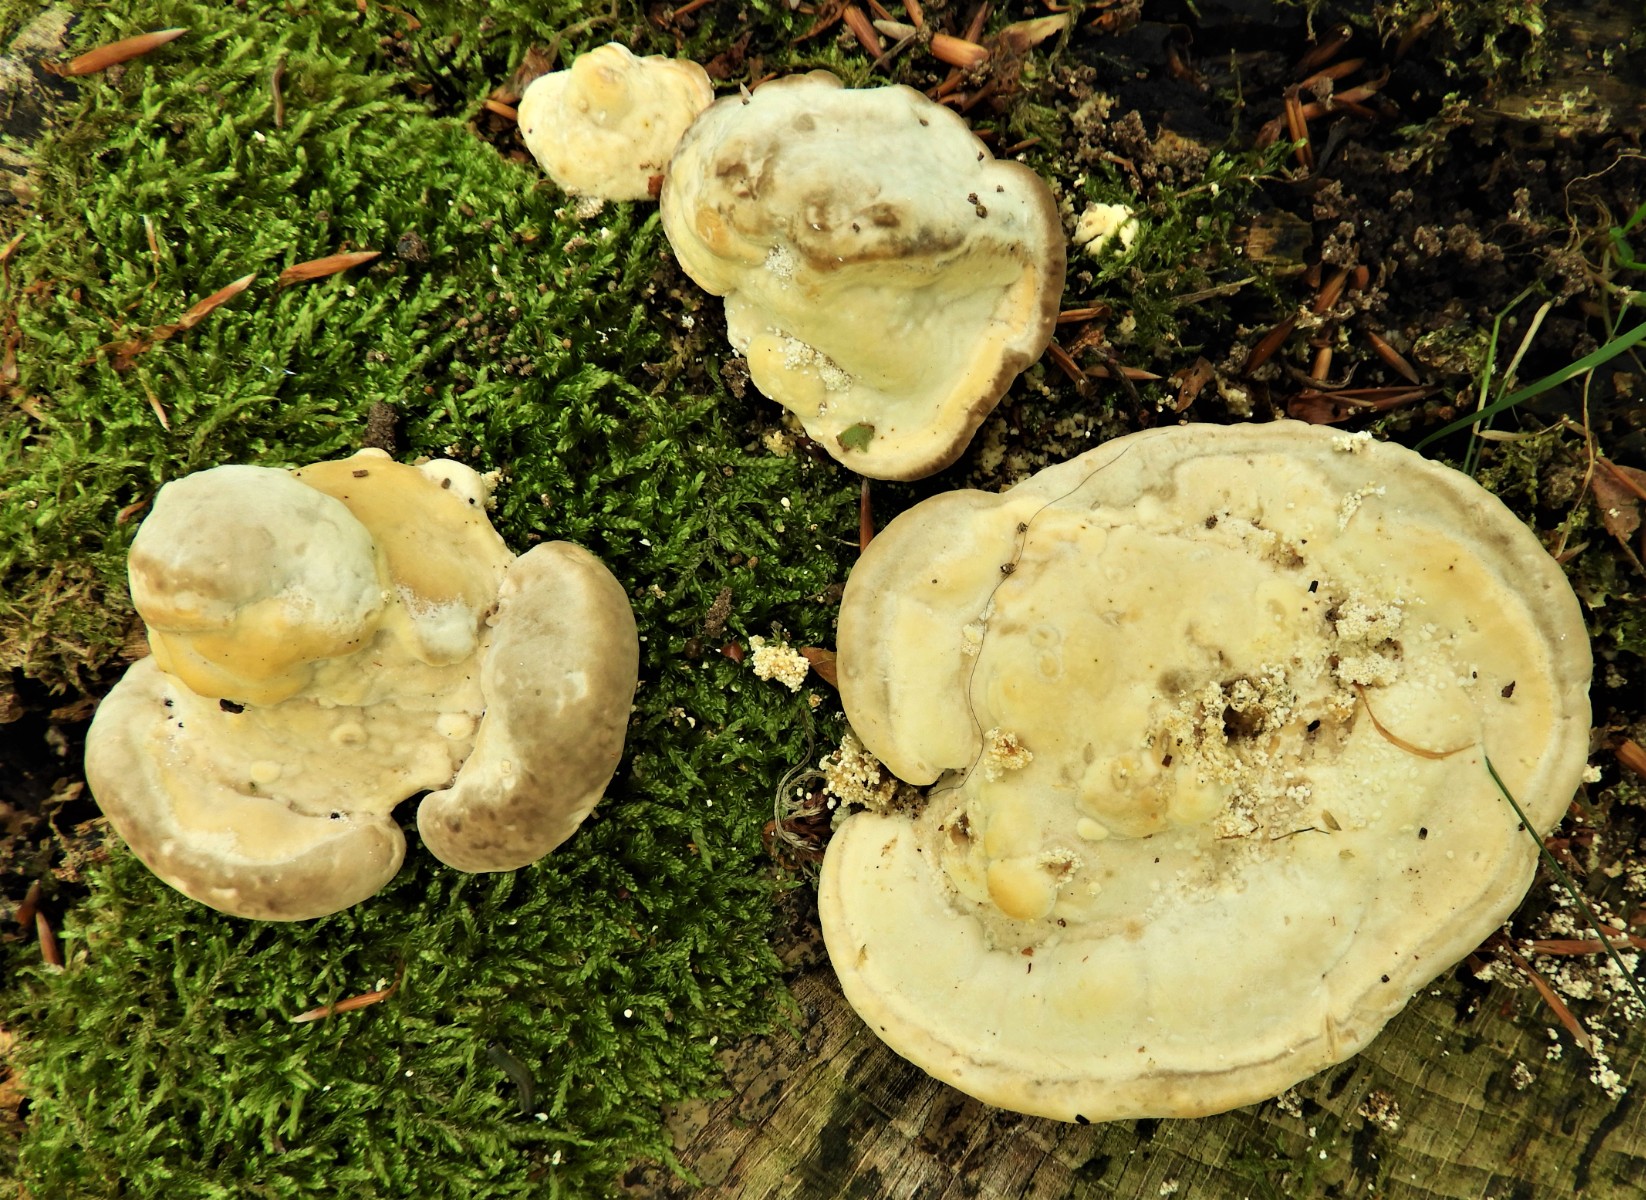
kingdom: Fungi
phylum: Basidiomycota
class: Agaricomycetes
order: Polyporales
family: Polyporaceae
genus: Trametes
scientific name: Trametes gibbosa
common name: puklet læderporesvamp
